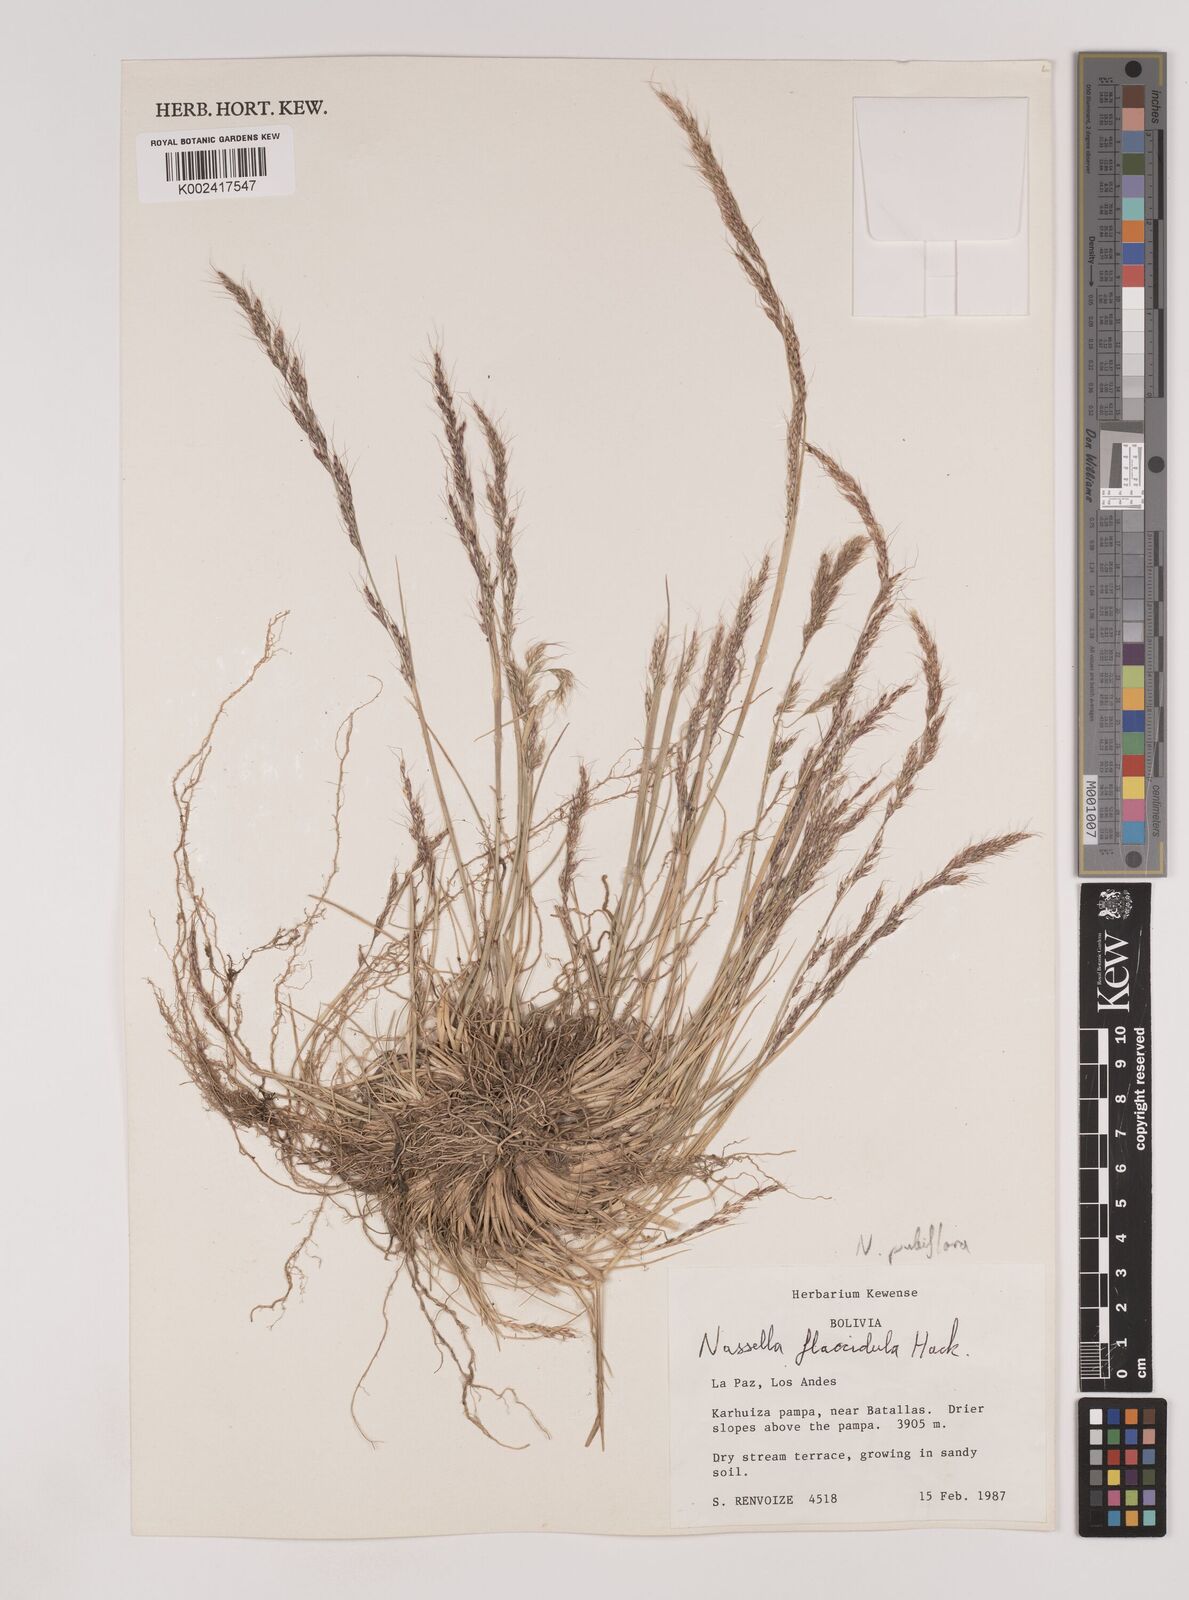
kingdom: Plantae
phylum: Tracheophyta
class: Liliopsida
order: Poales
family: Poaceae
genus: Nassella
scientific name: Nassella pubiflora
